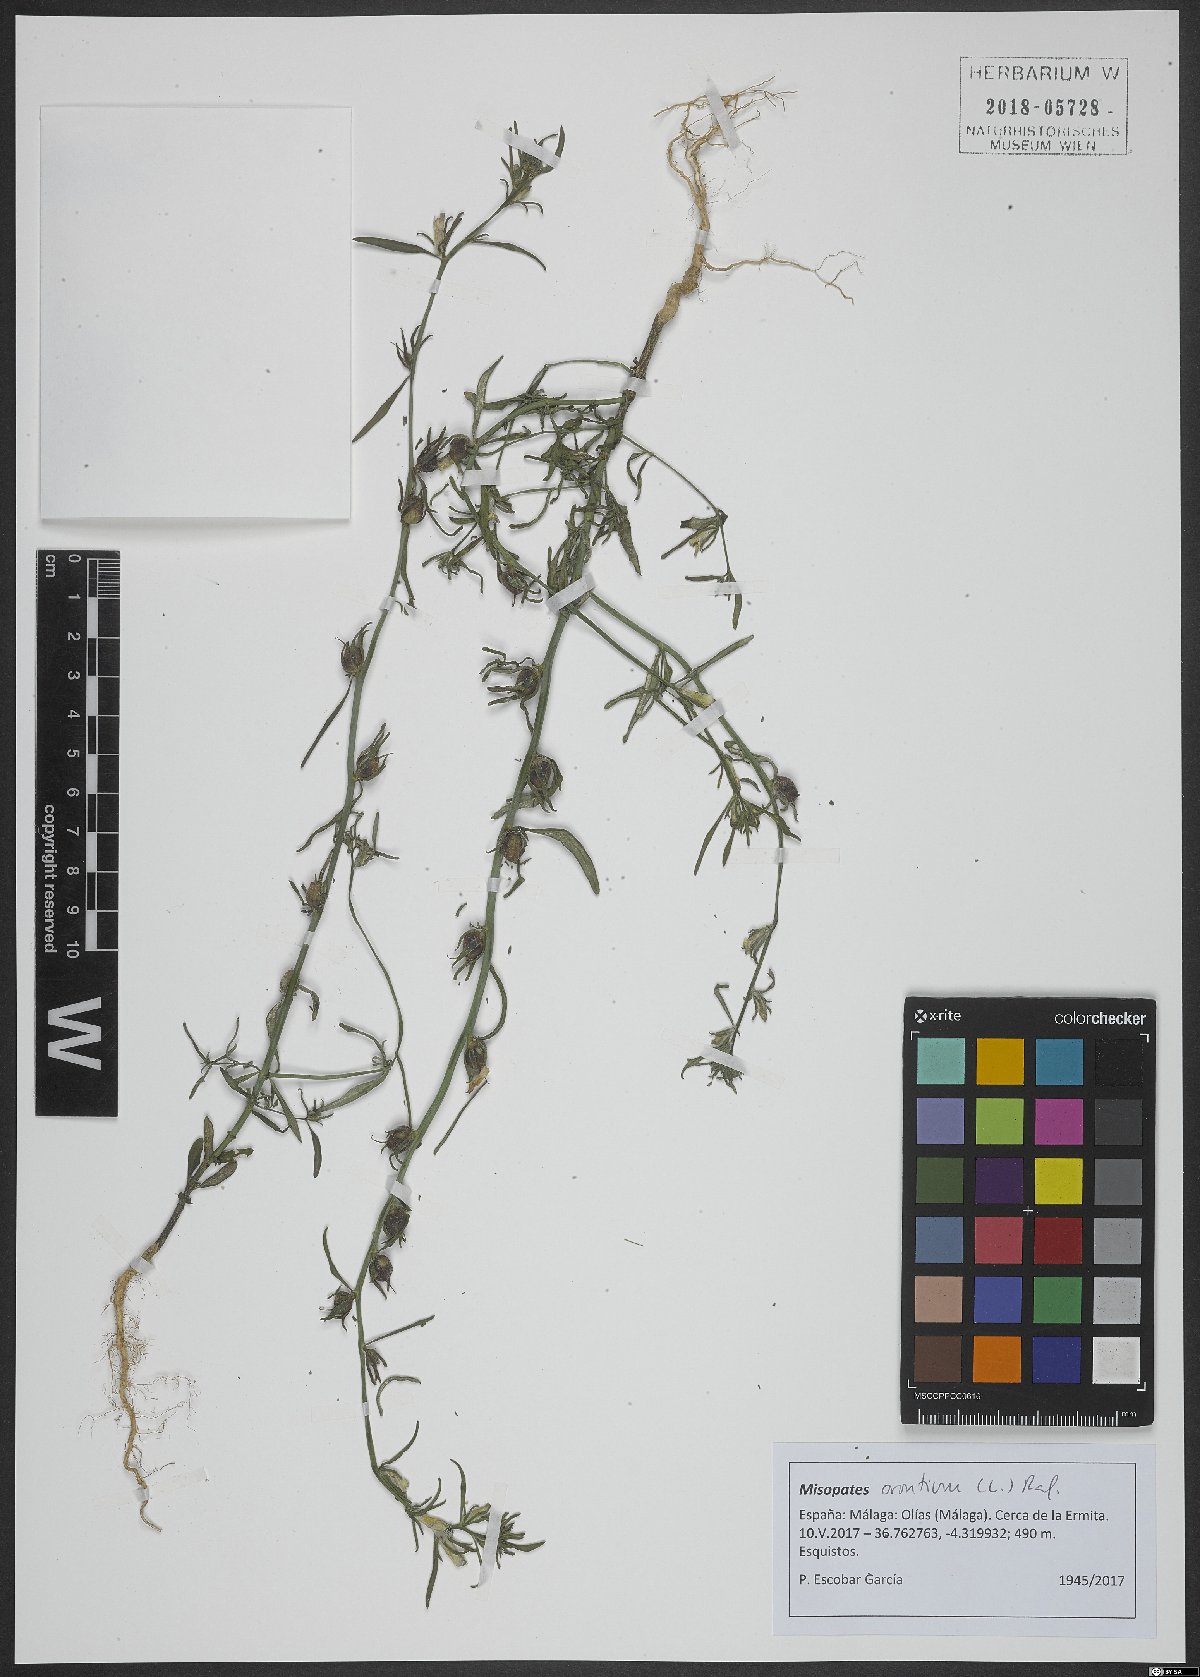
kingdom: Plantae
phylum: Tracheophyta
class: Magnoliopsida
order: Lamiales
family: Plantaginaceae
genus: Misopates
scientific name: Misopates orontium
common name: Weasel's-snout
